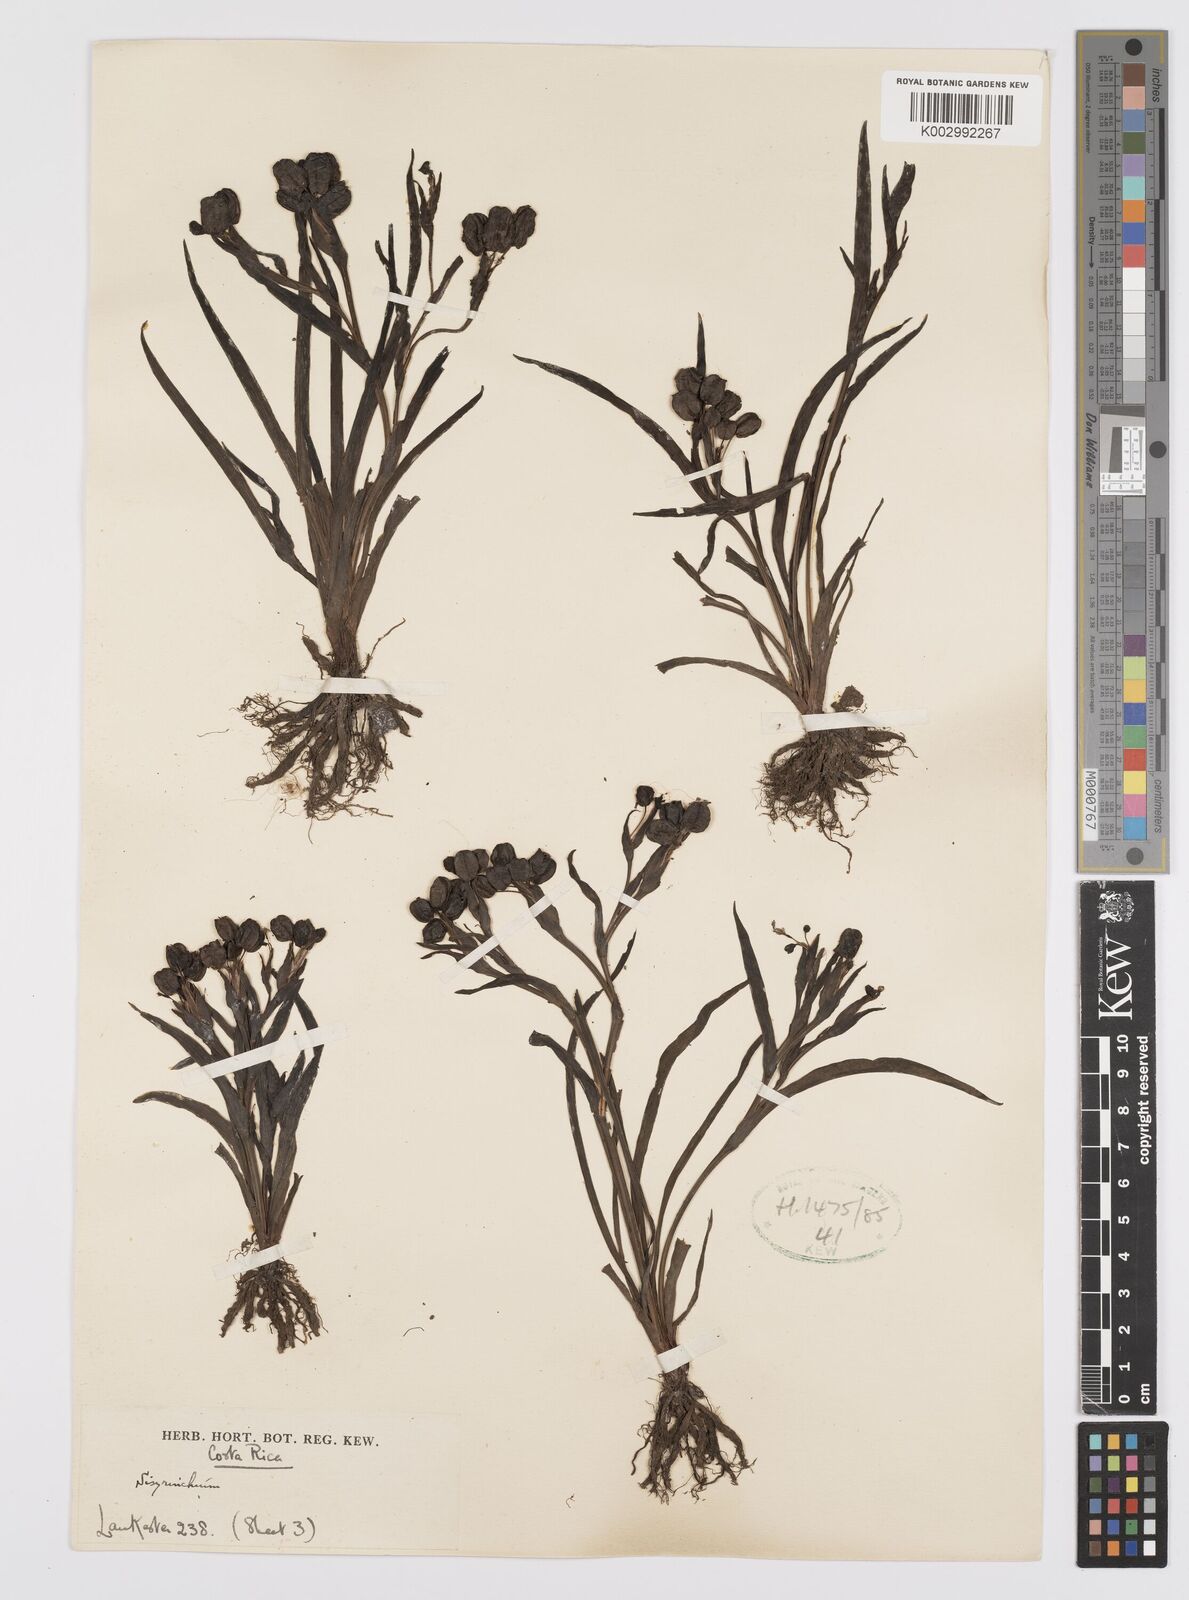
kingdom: Plantae
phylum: Tracheophyta
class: Liliopsida
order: Asparagales
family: Iridaceae
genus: Sisyrinchium
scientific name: Sisyrinchium
